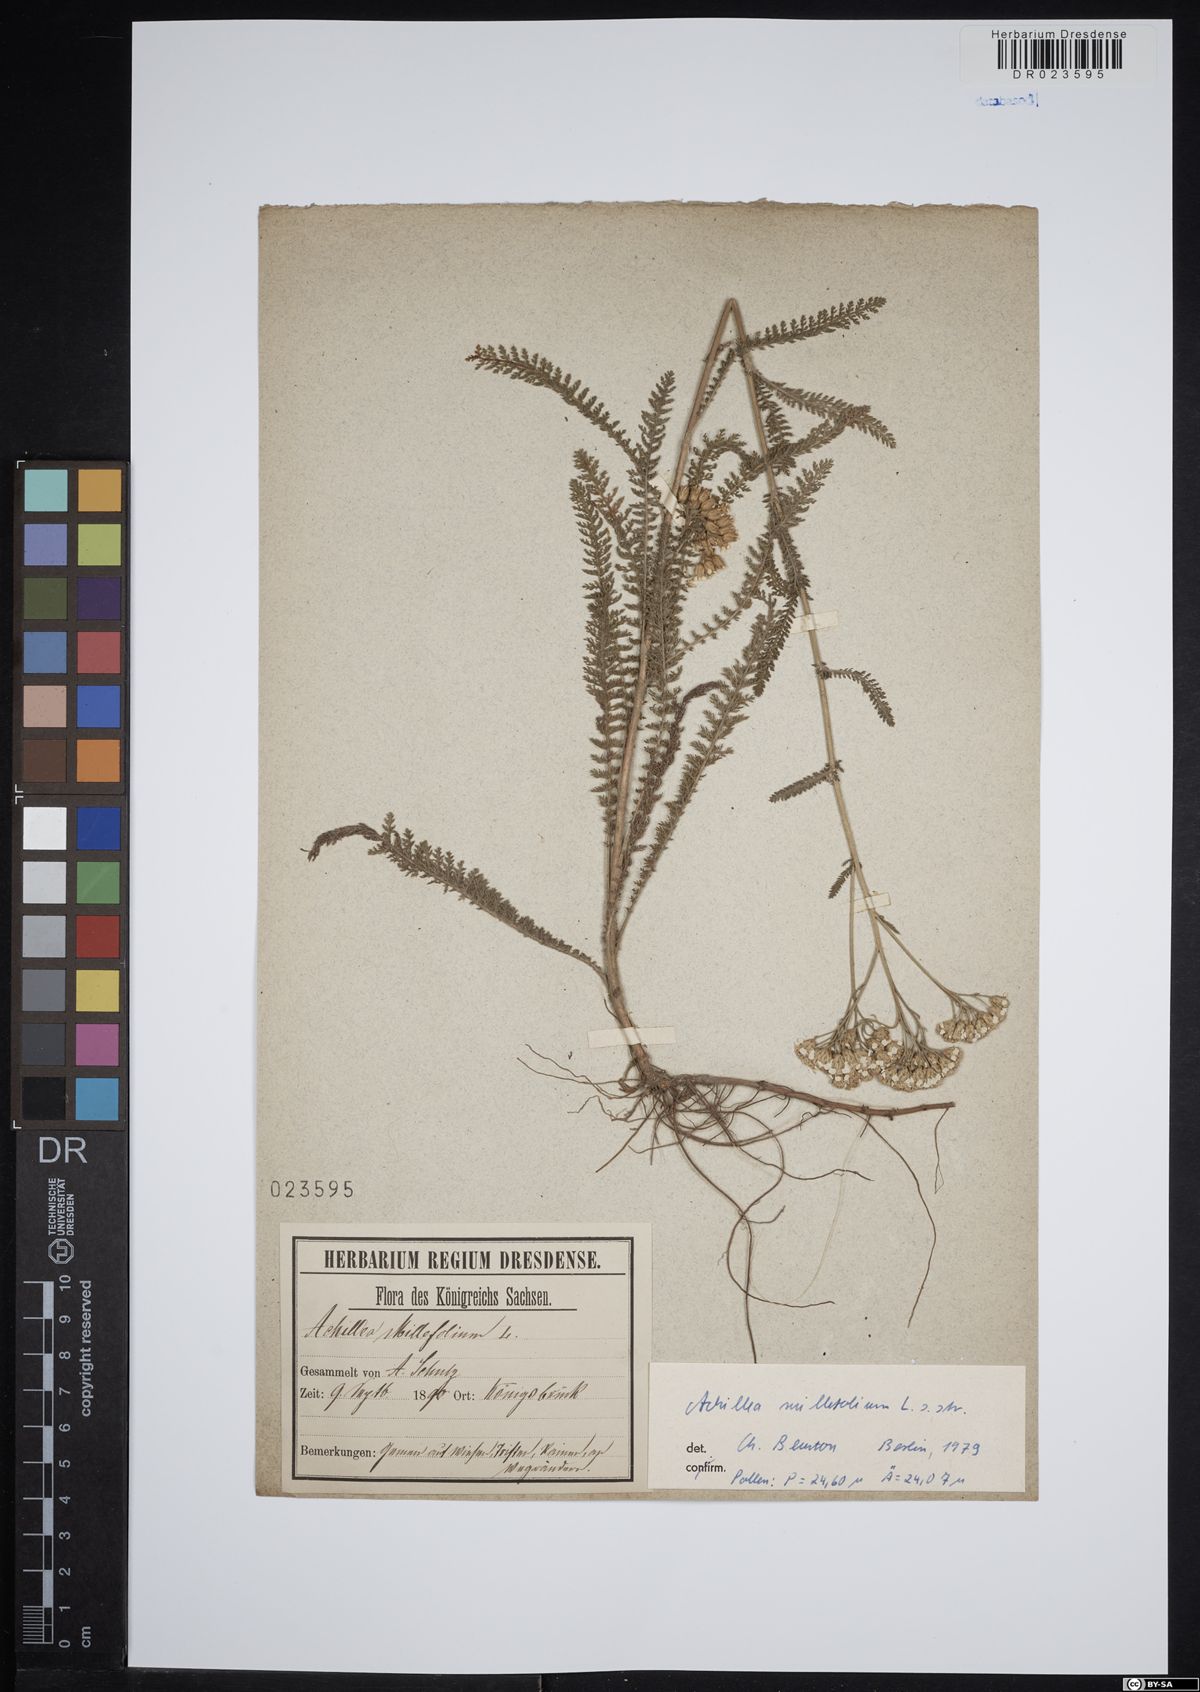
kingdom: Plantae
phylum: Tracheophyta
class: Magnoliopsida
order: Asterales
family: Asteraceae
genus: Achillea
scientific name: Achillea millefolium
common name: Yarrow
